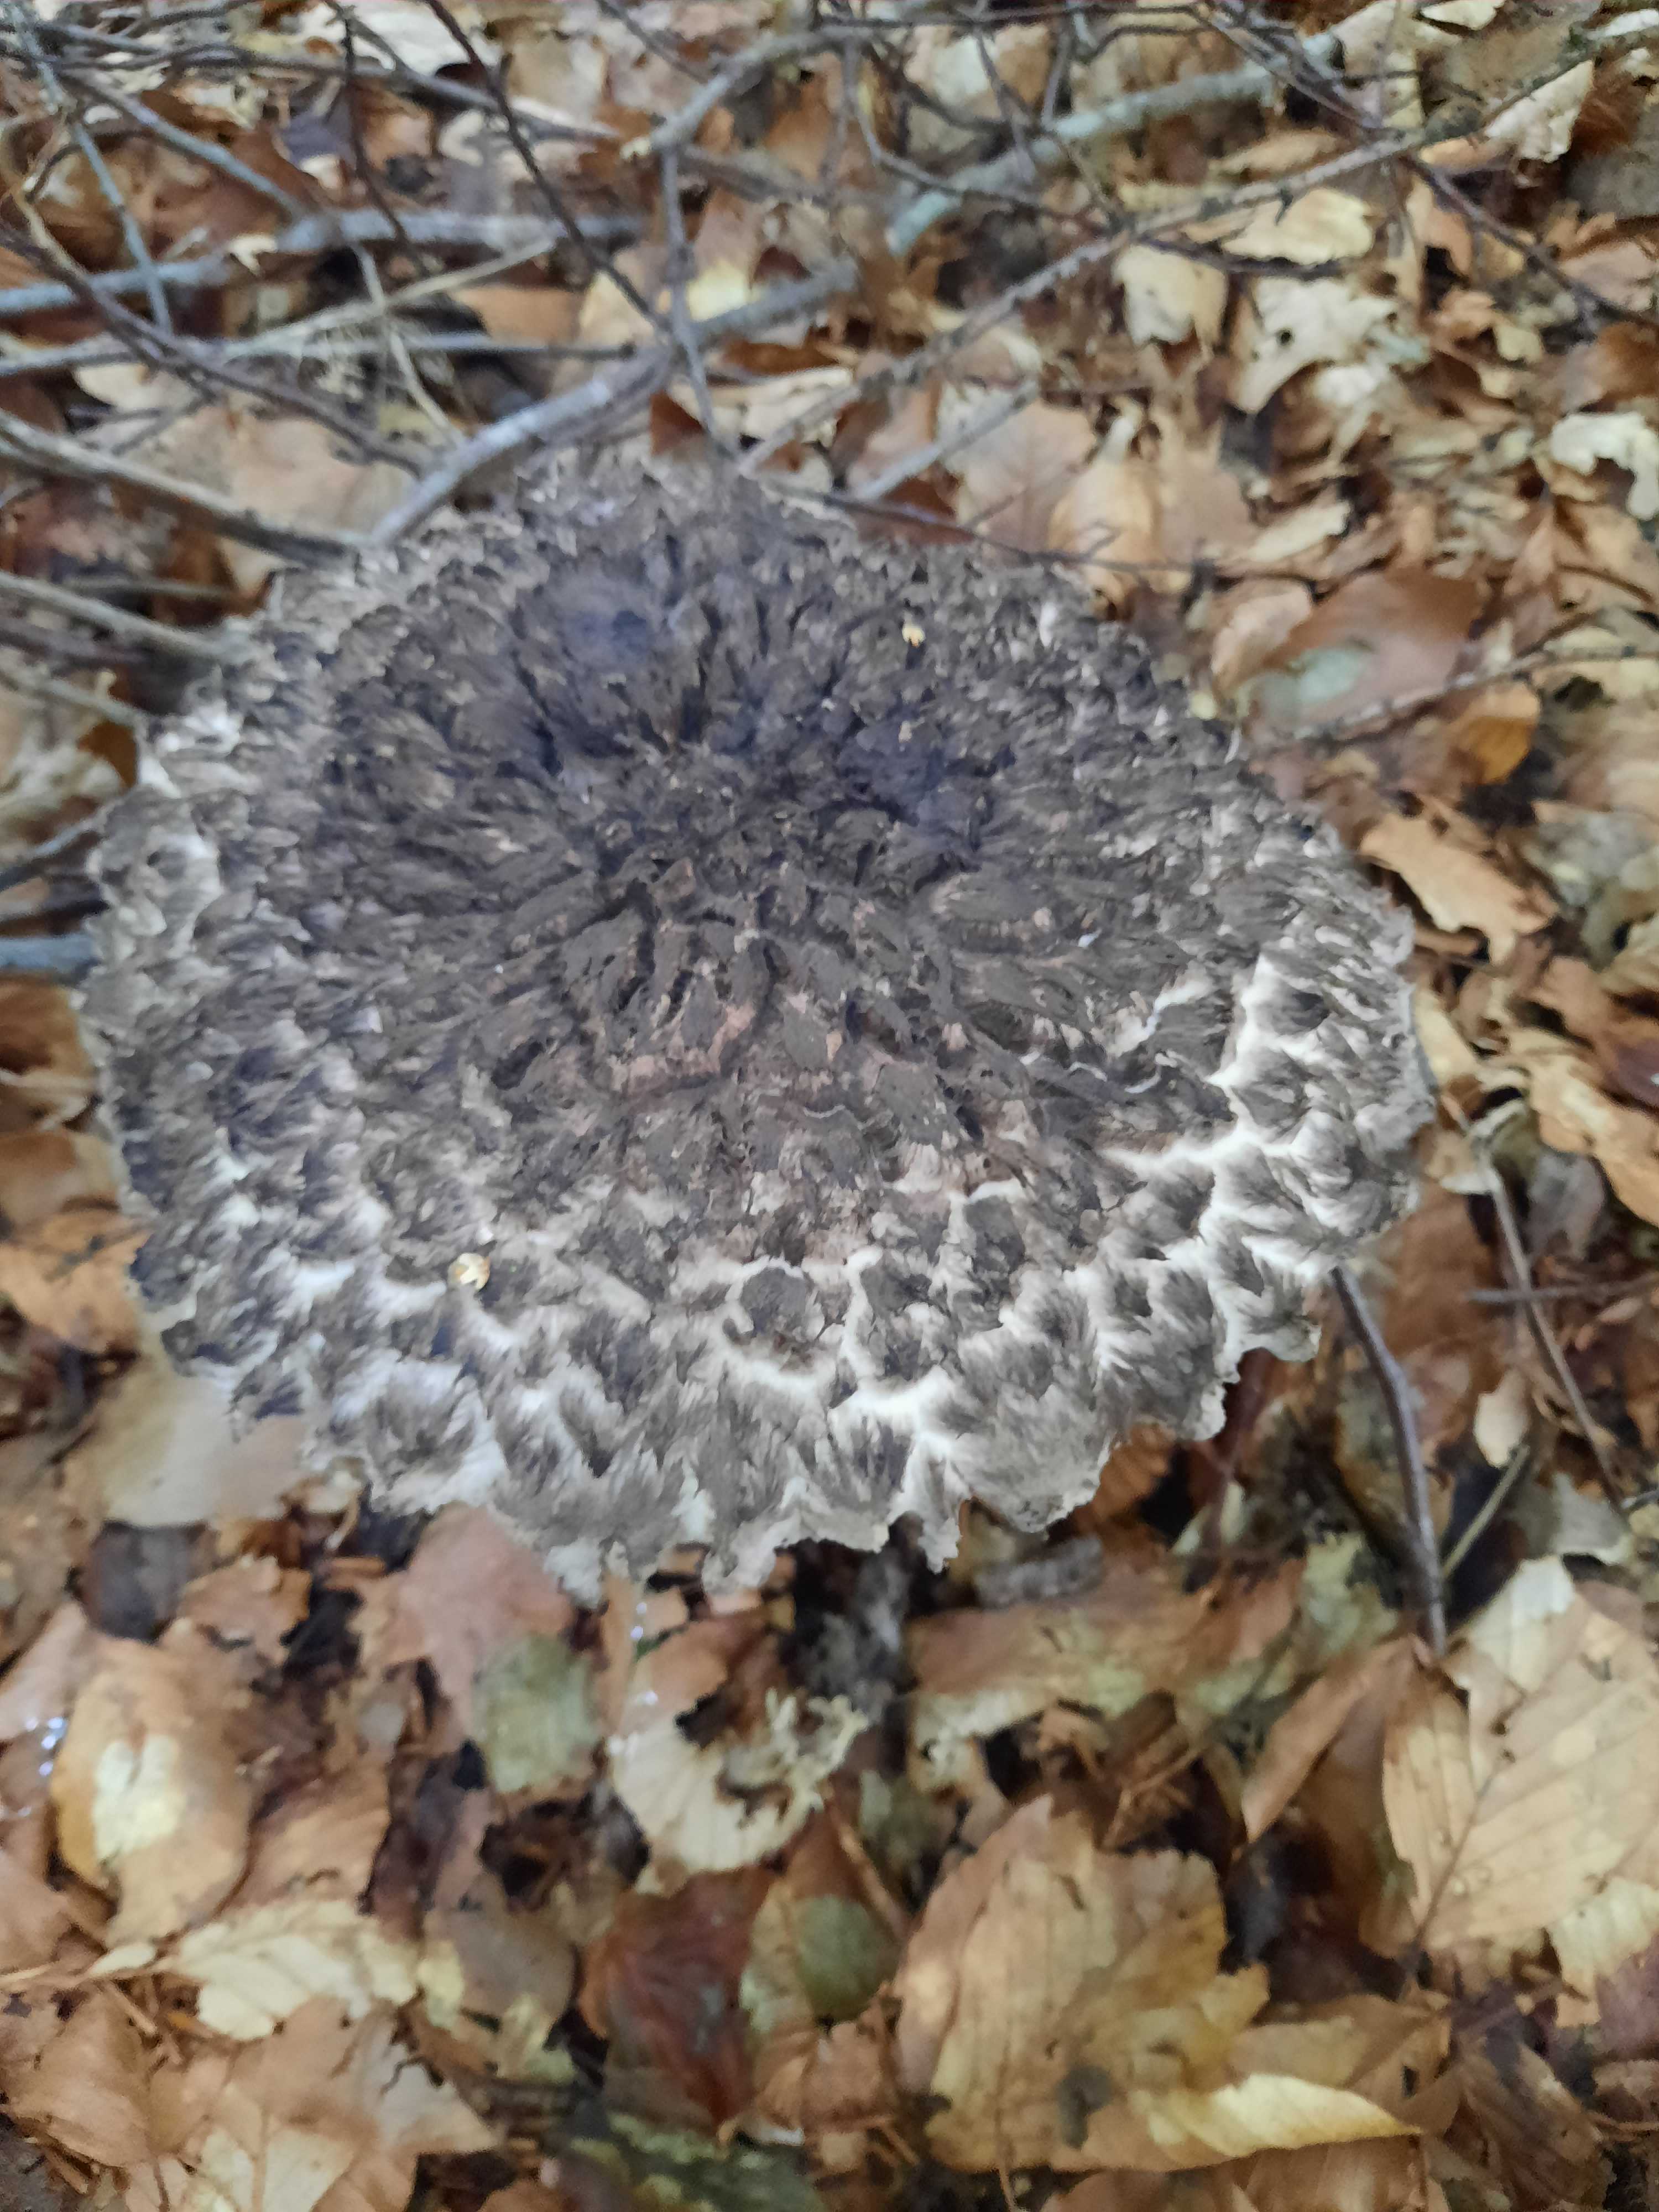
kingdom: Fungi
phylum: Basidiomycota
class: Agaricomycetes
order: Boletales
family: Boletaceae
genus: Strobilomyces
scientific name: Strobilomyces strobilaceus
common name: koglerørhat
